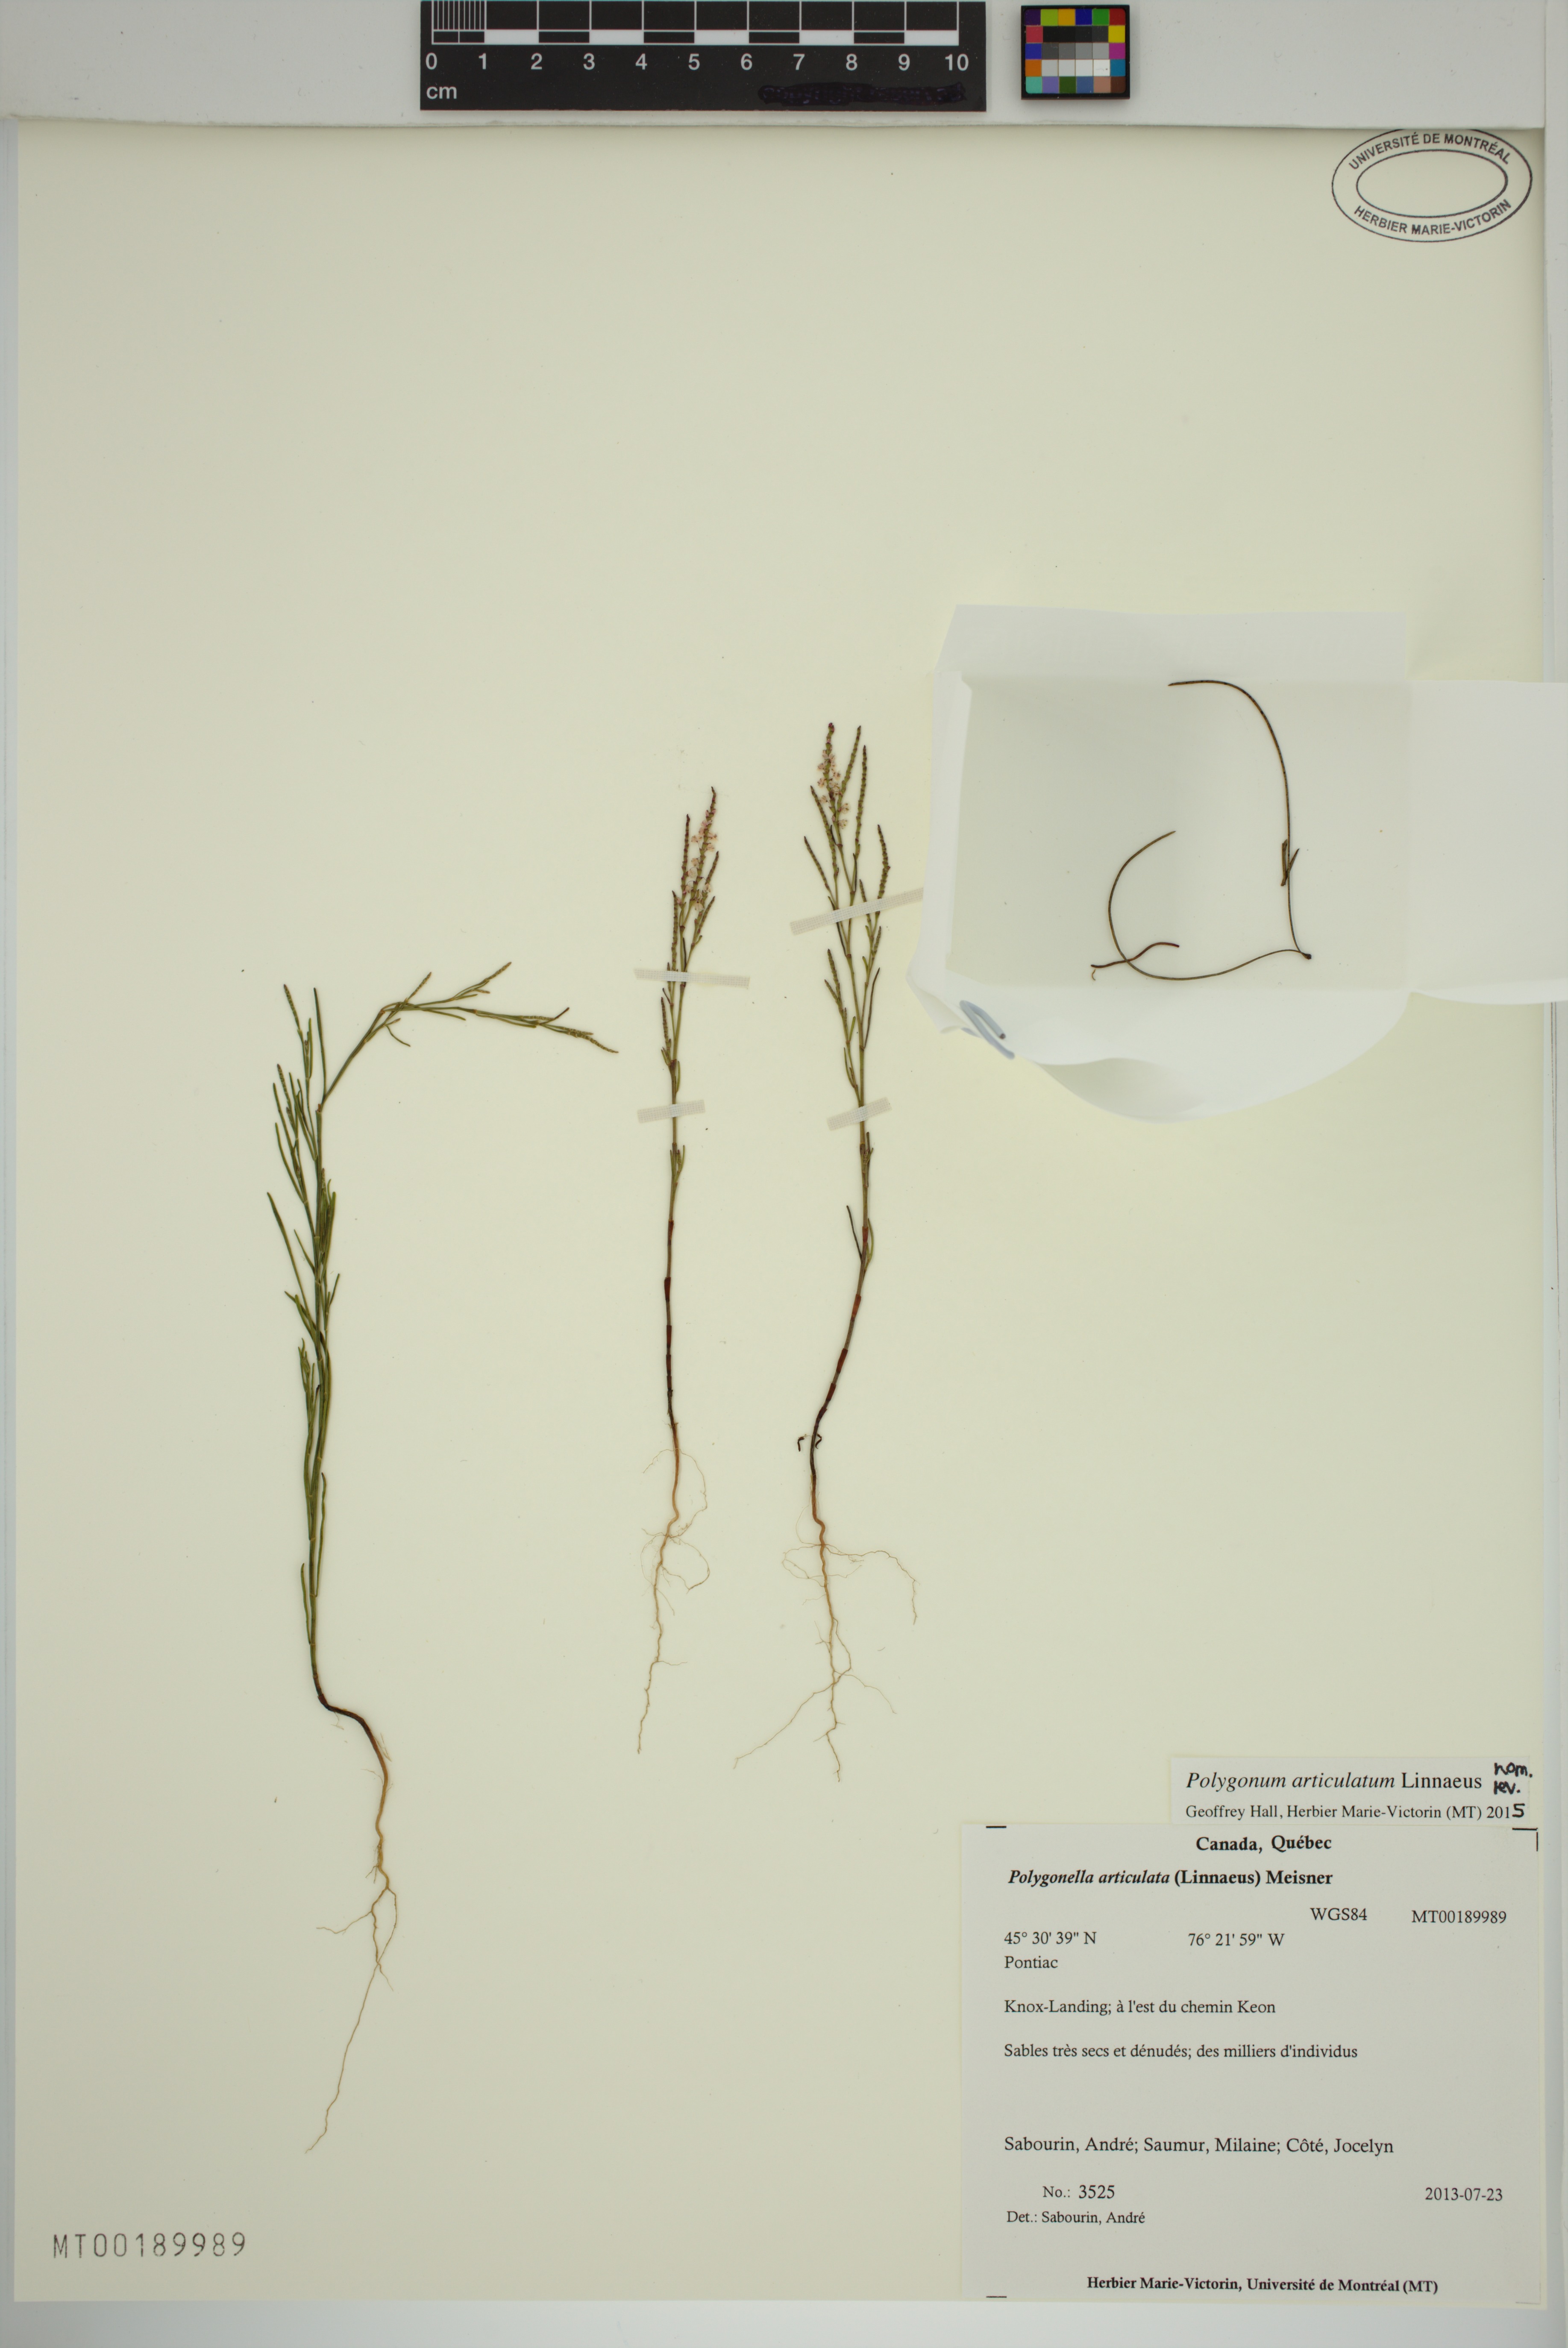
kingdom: Plantae
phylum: Tracheophyta
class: Magnoliopsida
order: Caryophyllales
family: Polygonaceae
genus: Polygonella
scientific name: Polygonella articulata
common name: Coastal jointweed
